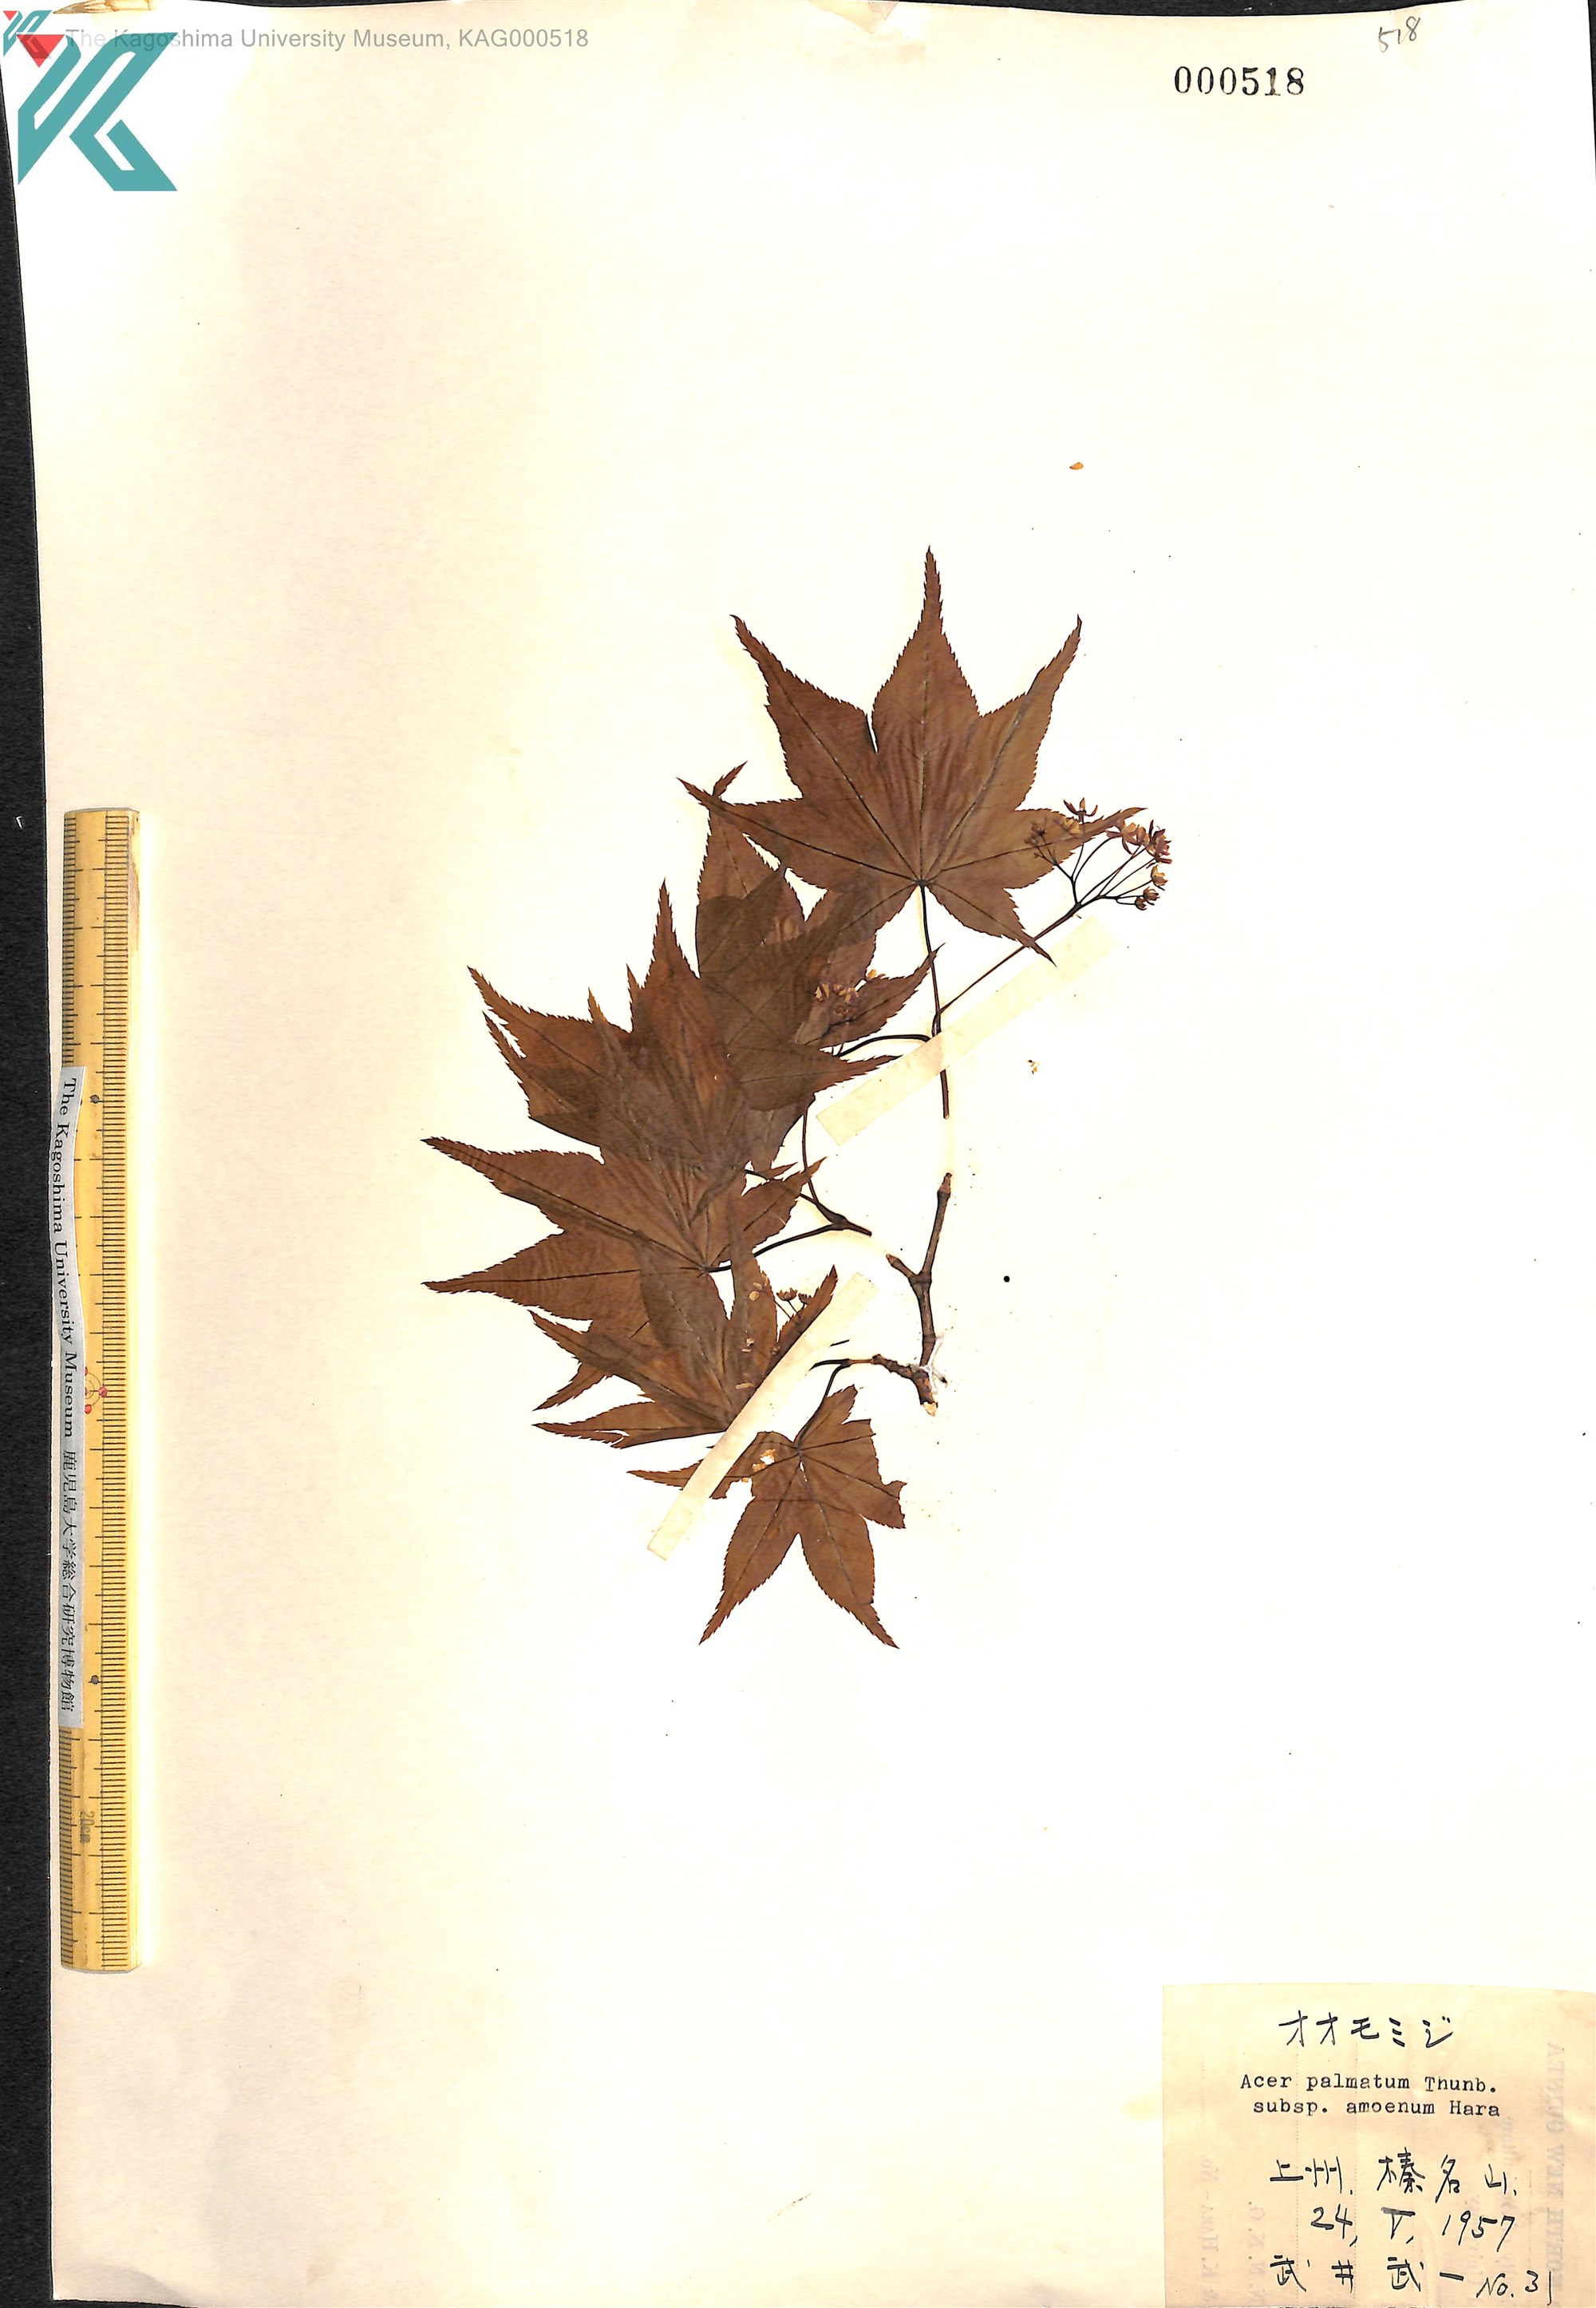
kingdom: Plantae
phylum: Tracheophyta
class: Magnoliopsida
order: Sapindales
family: Sapindaceae
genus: Acer
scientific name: Acer palmatum
